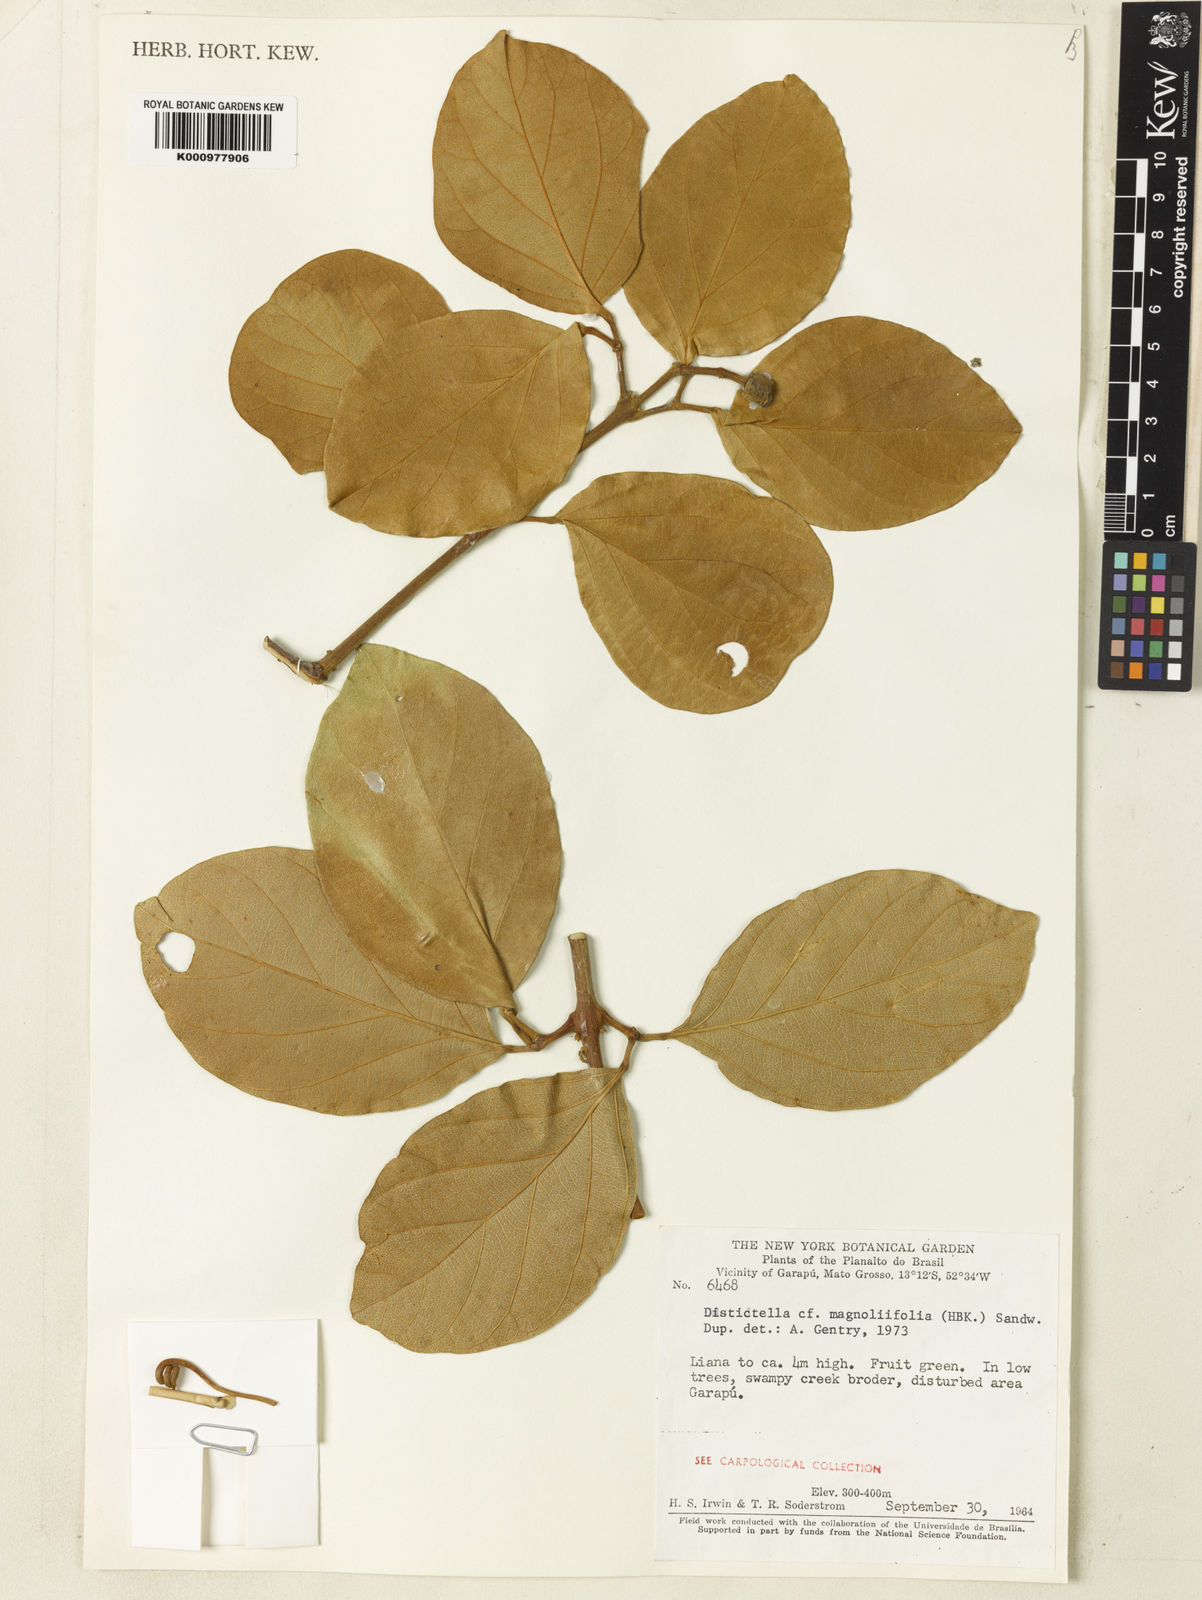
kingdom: Plantae
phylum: Tracheophyta
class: Magnoliopsida
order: Lamiales
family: Bignoniaceae
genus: Amphilophium
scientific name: Amphilophium
